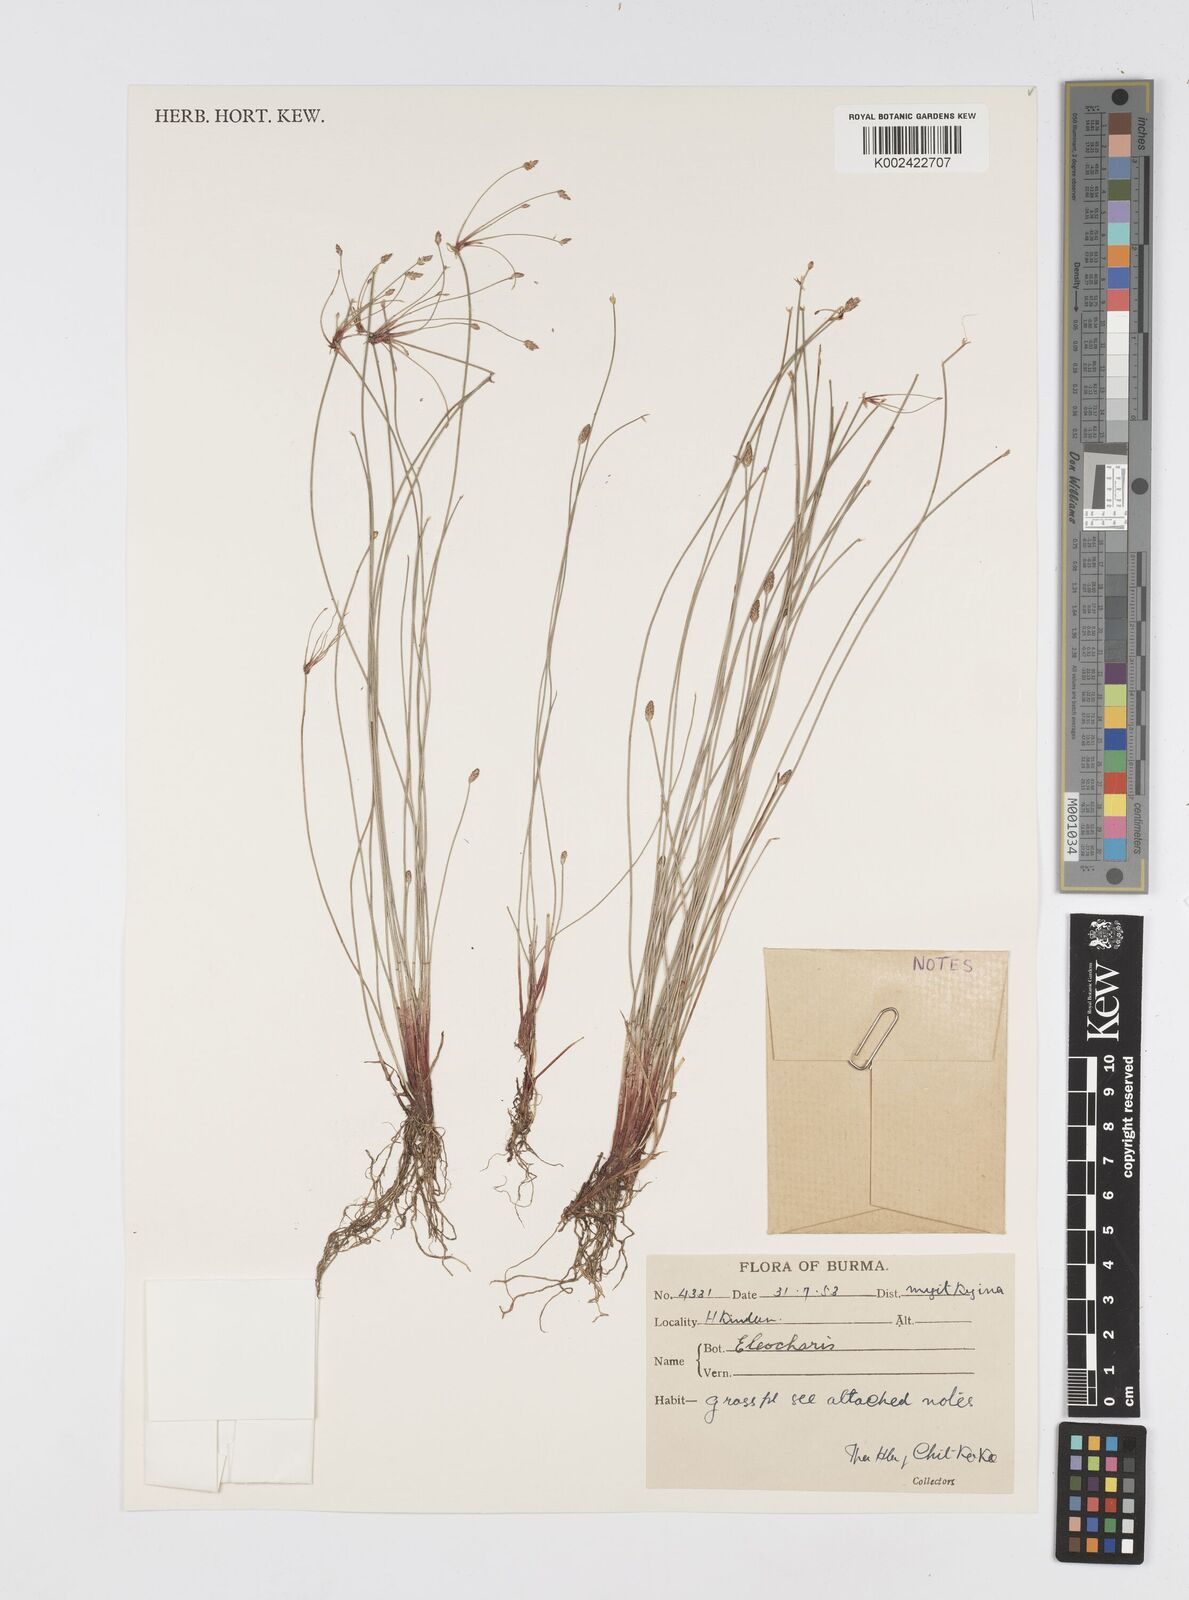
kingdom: Plantae
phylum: Tracheophyta
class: Liliopsida
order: Poales
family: Cyperaceae
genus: Eleocharis
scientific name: Eleocharis
